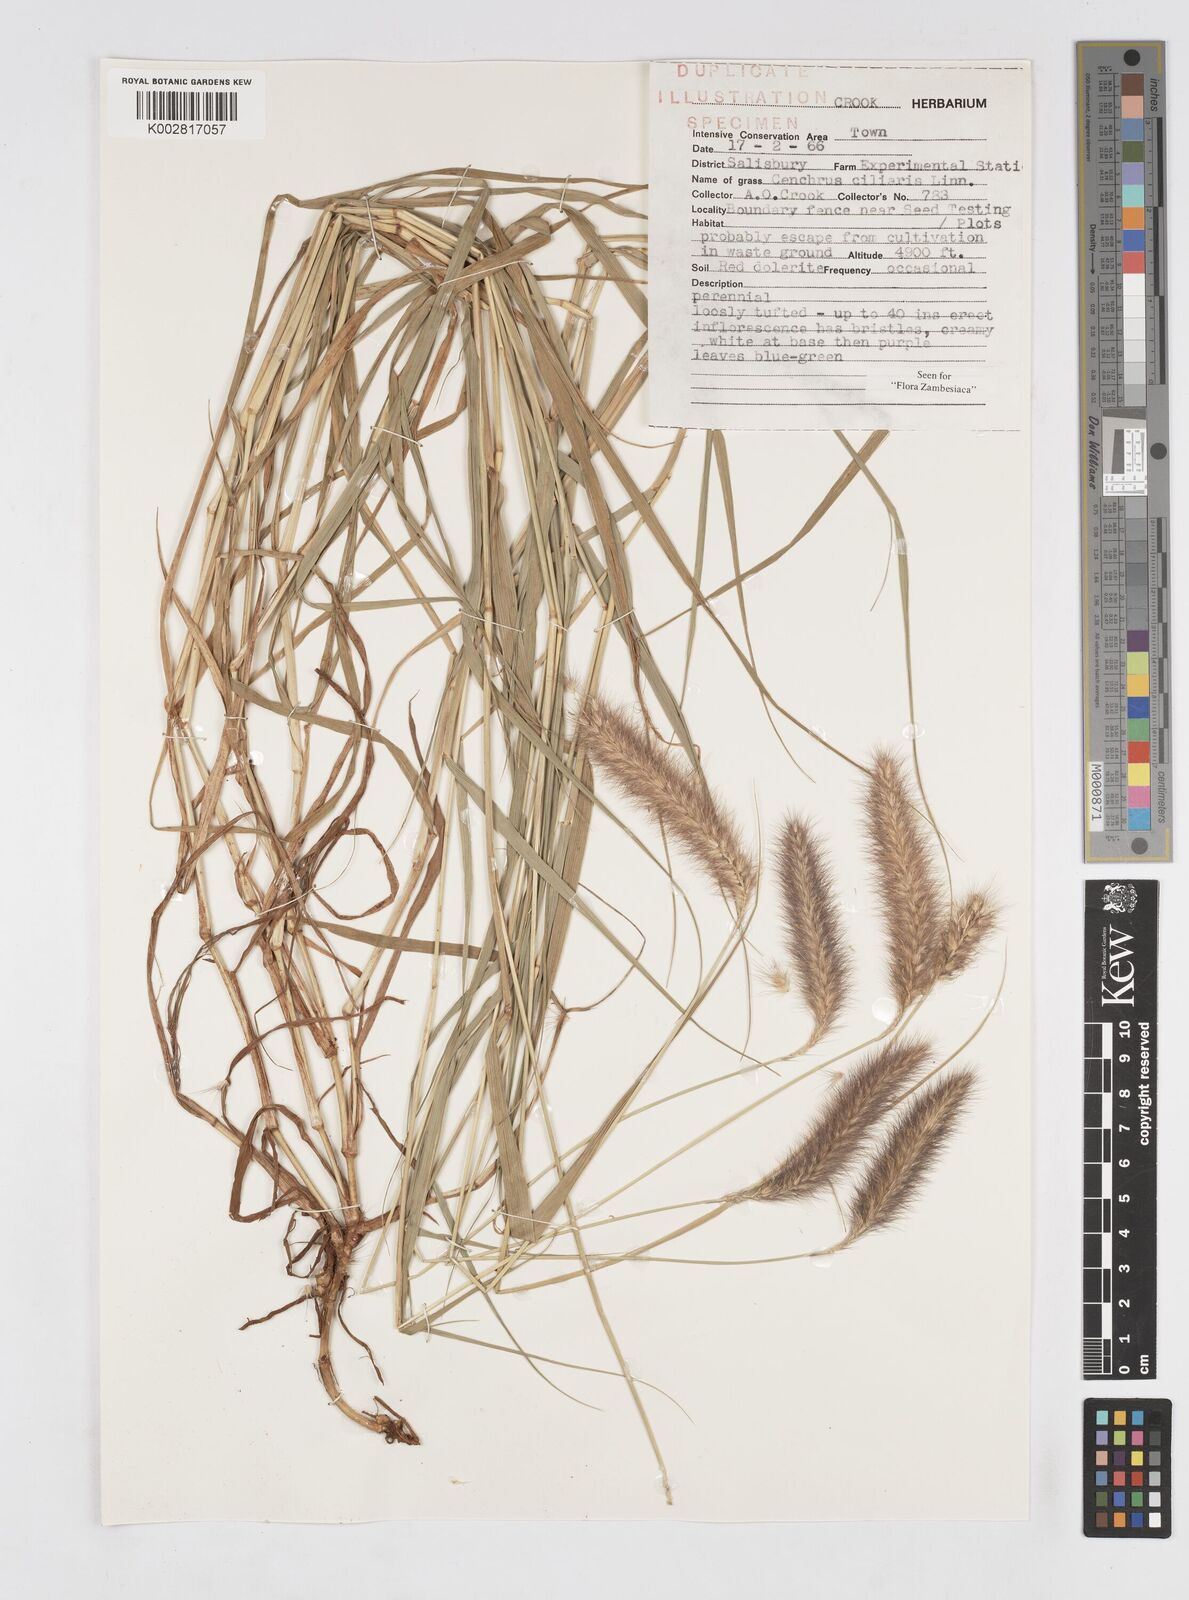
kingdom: Plantae
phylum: Tracheophyta
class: Liliopsida
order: Poales
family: Poaceae
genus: Cenchrus
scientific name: Cenchrus ciliaris
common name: Buffelgrass
